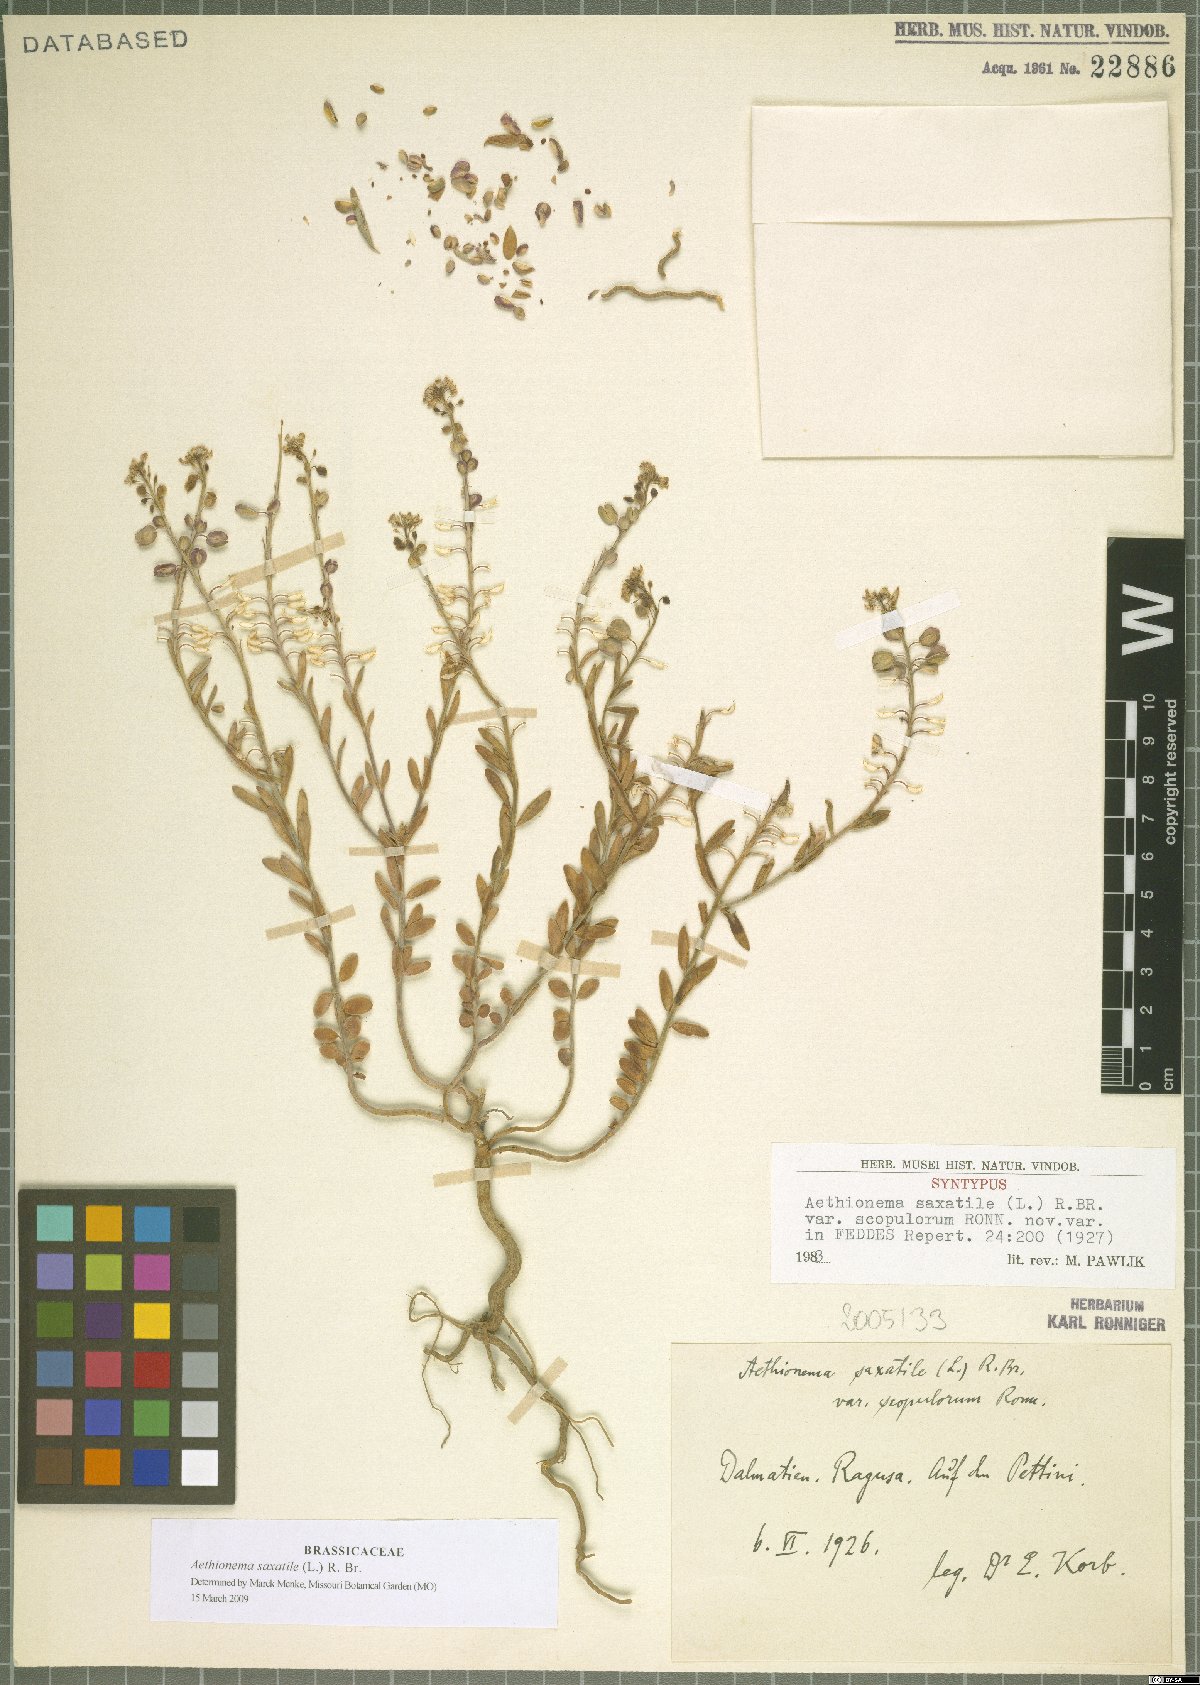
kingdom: Plantae
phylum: Tracheophyta
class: Magnoliopsida
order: Brassicales
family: Brassicaceae
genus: Aethionema
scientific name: Aethionema saxatile
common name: Burnt candytuft
